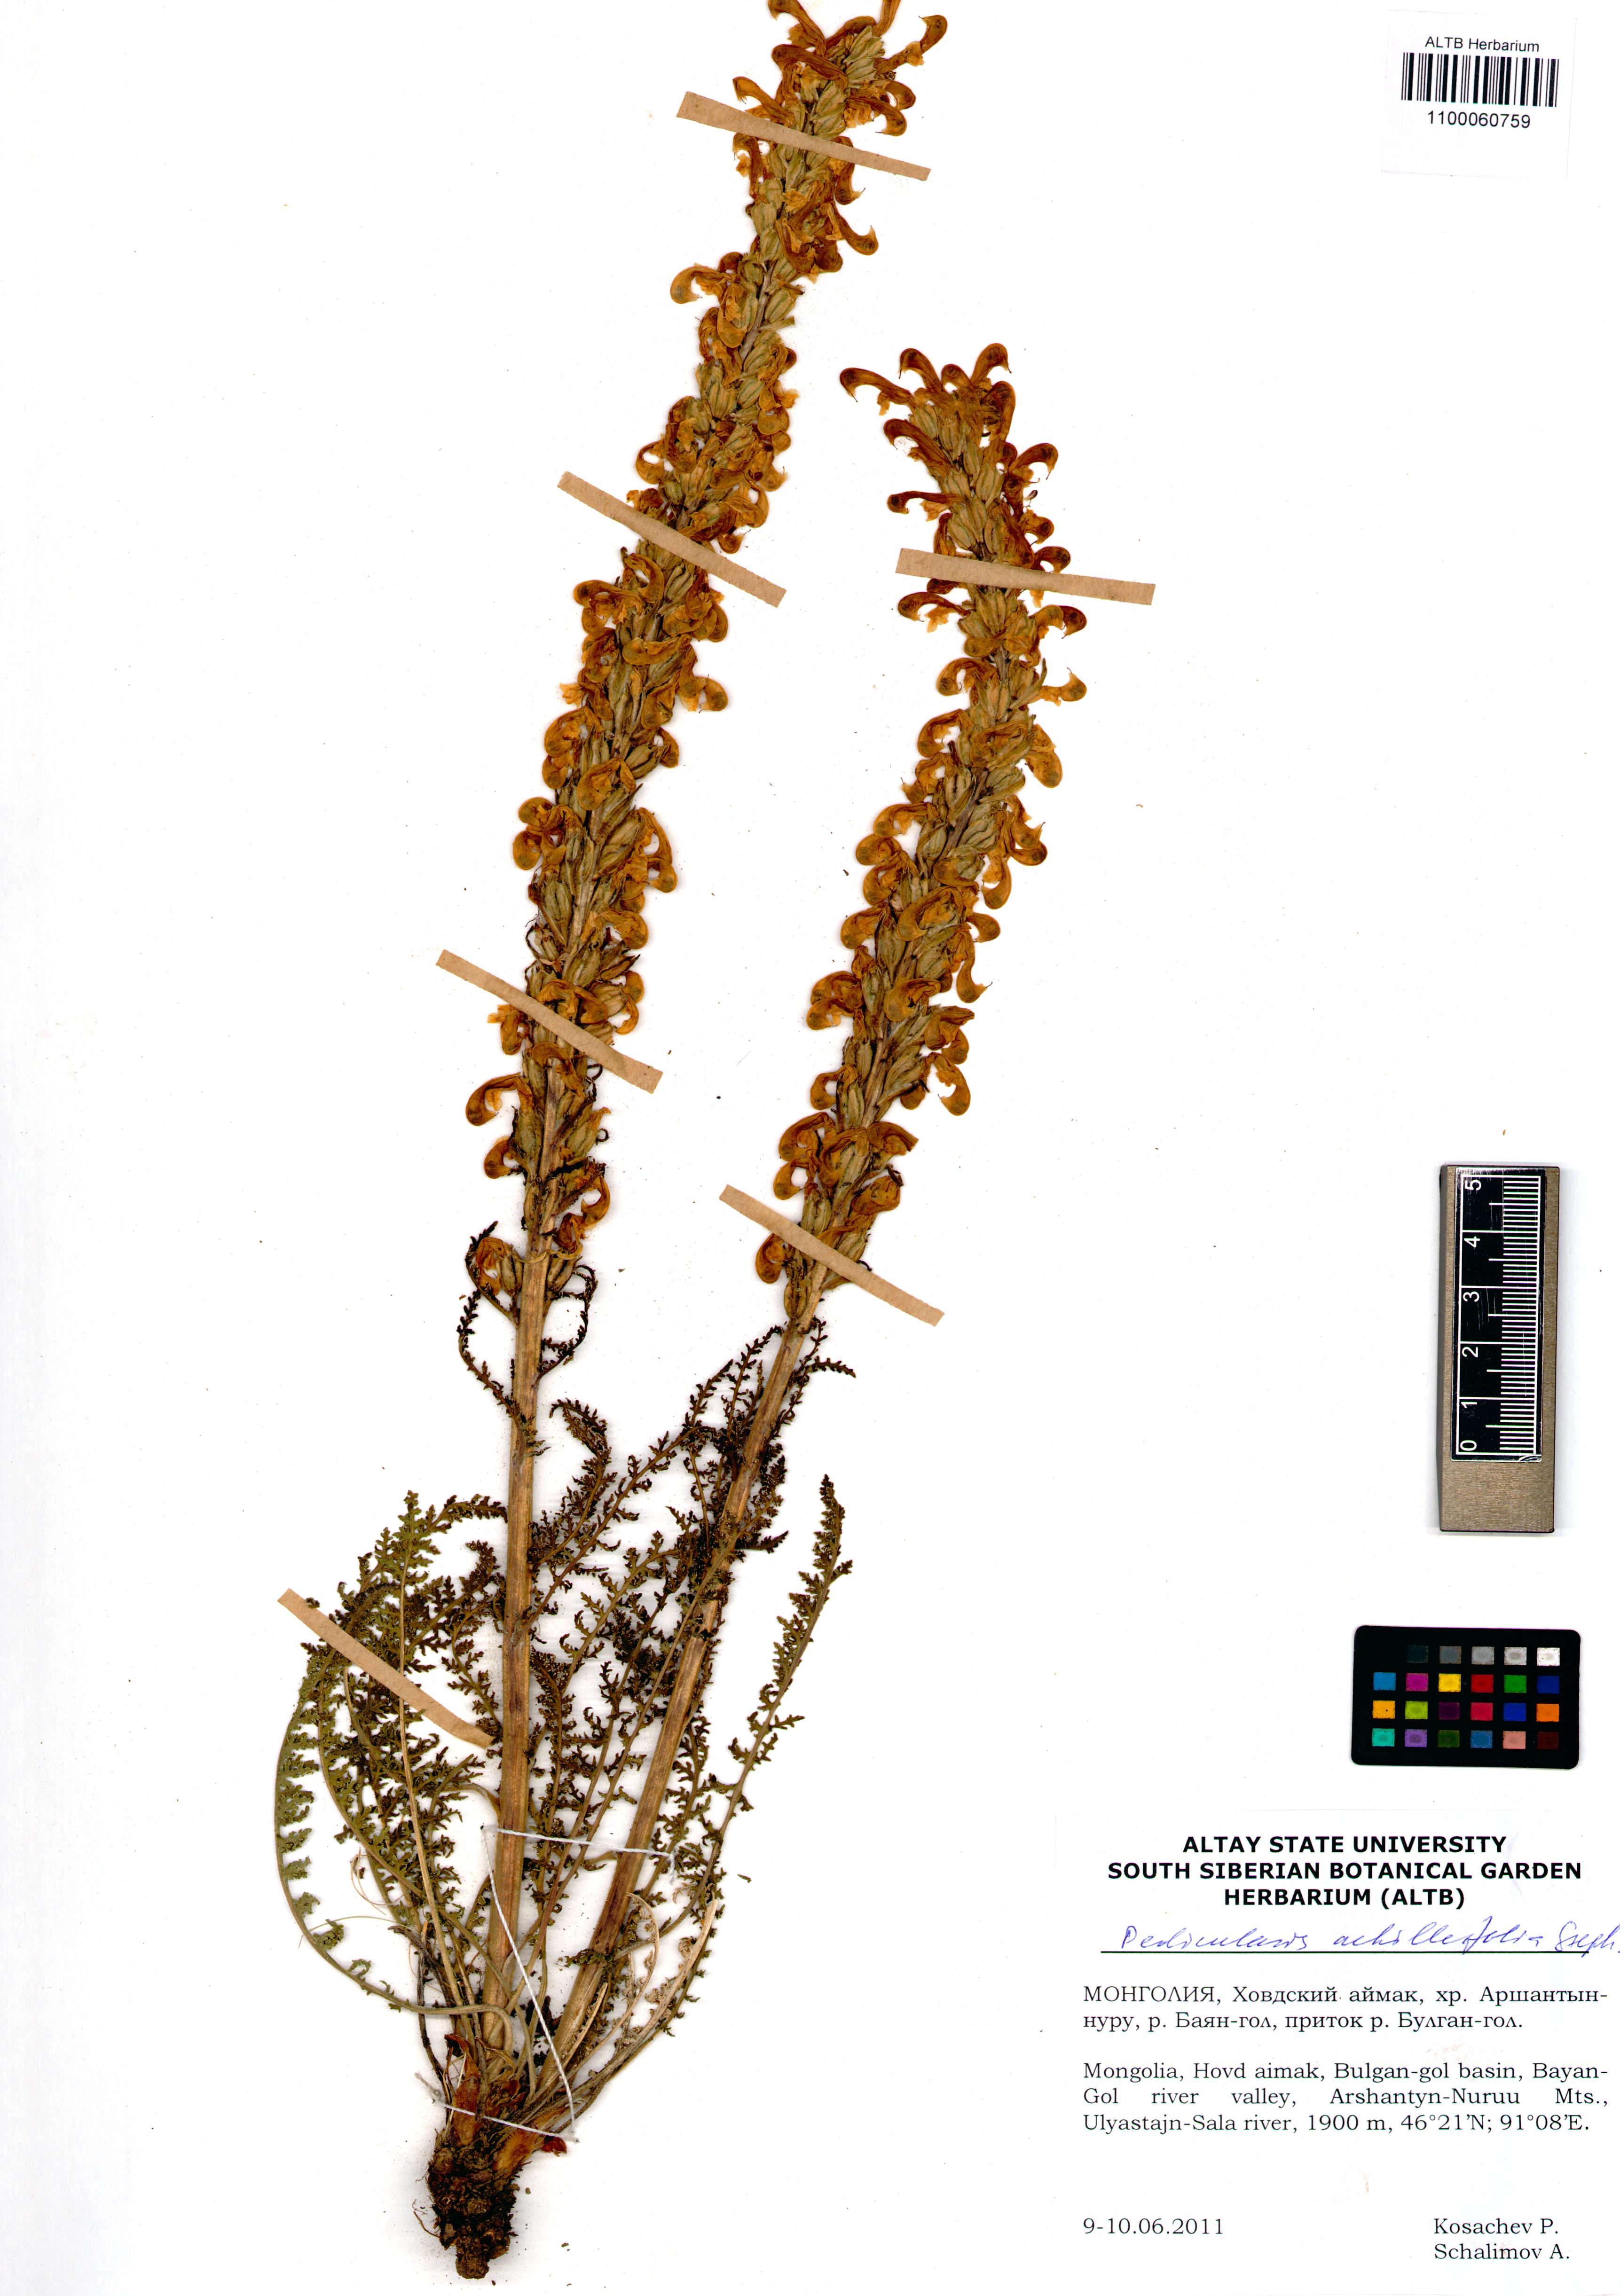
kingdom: Plantae
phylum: Tracheophyta
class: Magnoliopsida
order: Lamiales
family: Orobanchaceae
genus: Pedicularis
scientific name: Pedicularis achilleifolia
